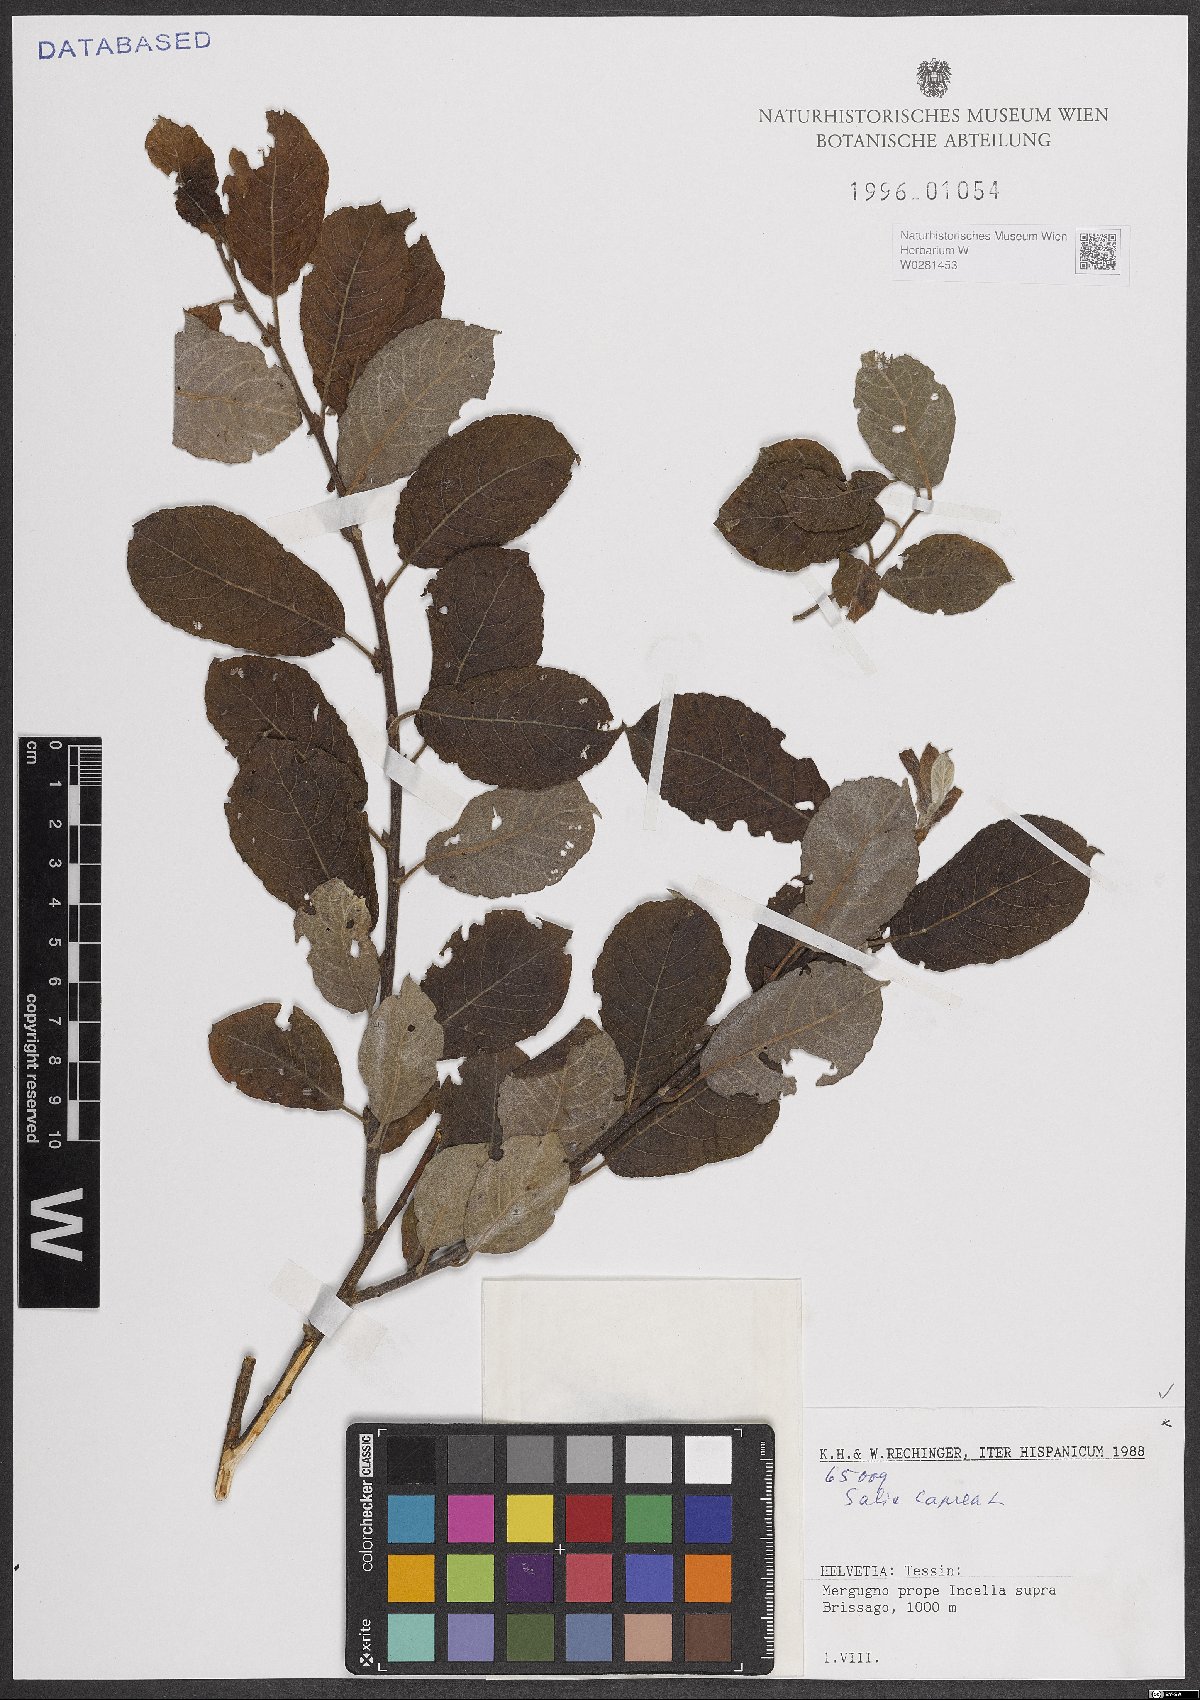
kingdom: Plantae
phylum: Tracheophyta
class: Magnoliopsida
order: Malpighiales
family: Salicaceae
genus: Salix
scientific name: Salix caprea
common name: Goat willow
